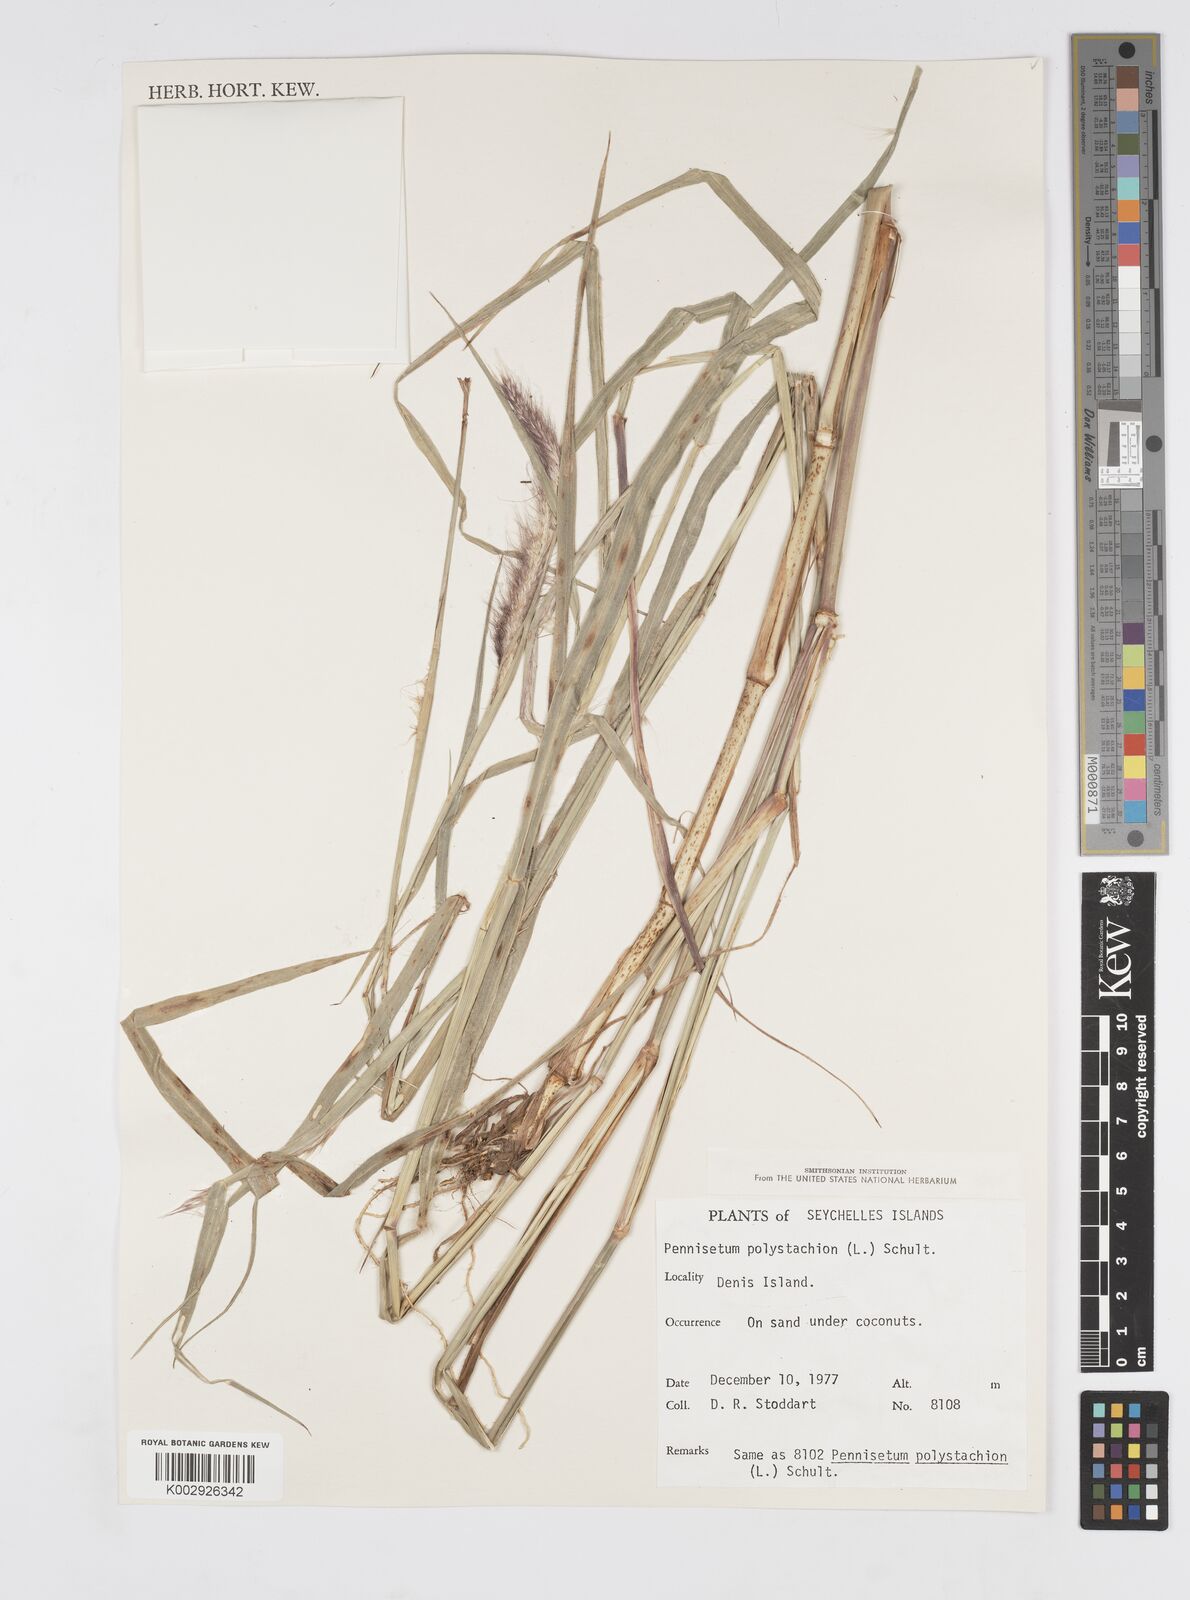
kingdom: Plantae
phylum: Tracheophyta
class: Liliopsida
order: Poales
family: Poaceae
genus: Setaria
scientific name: Setaria parviflora
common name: Knotroot bristle-grass
